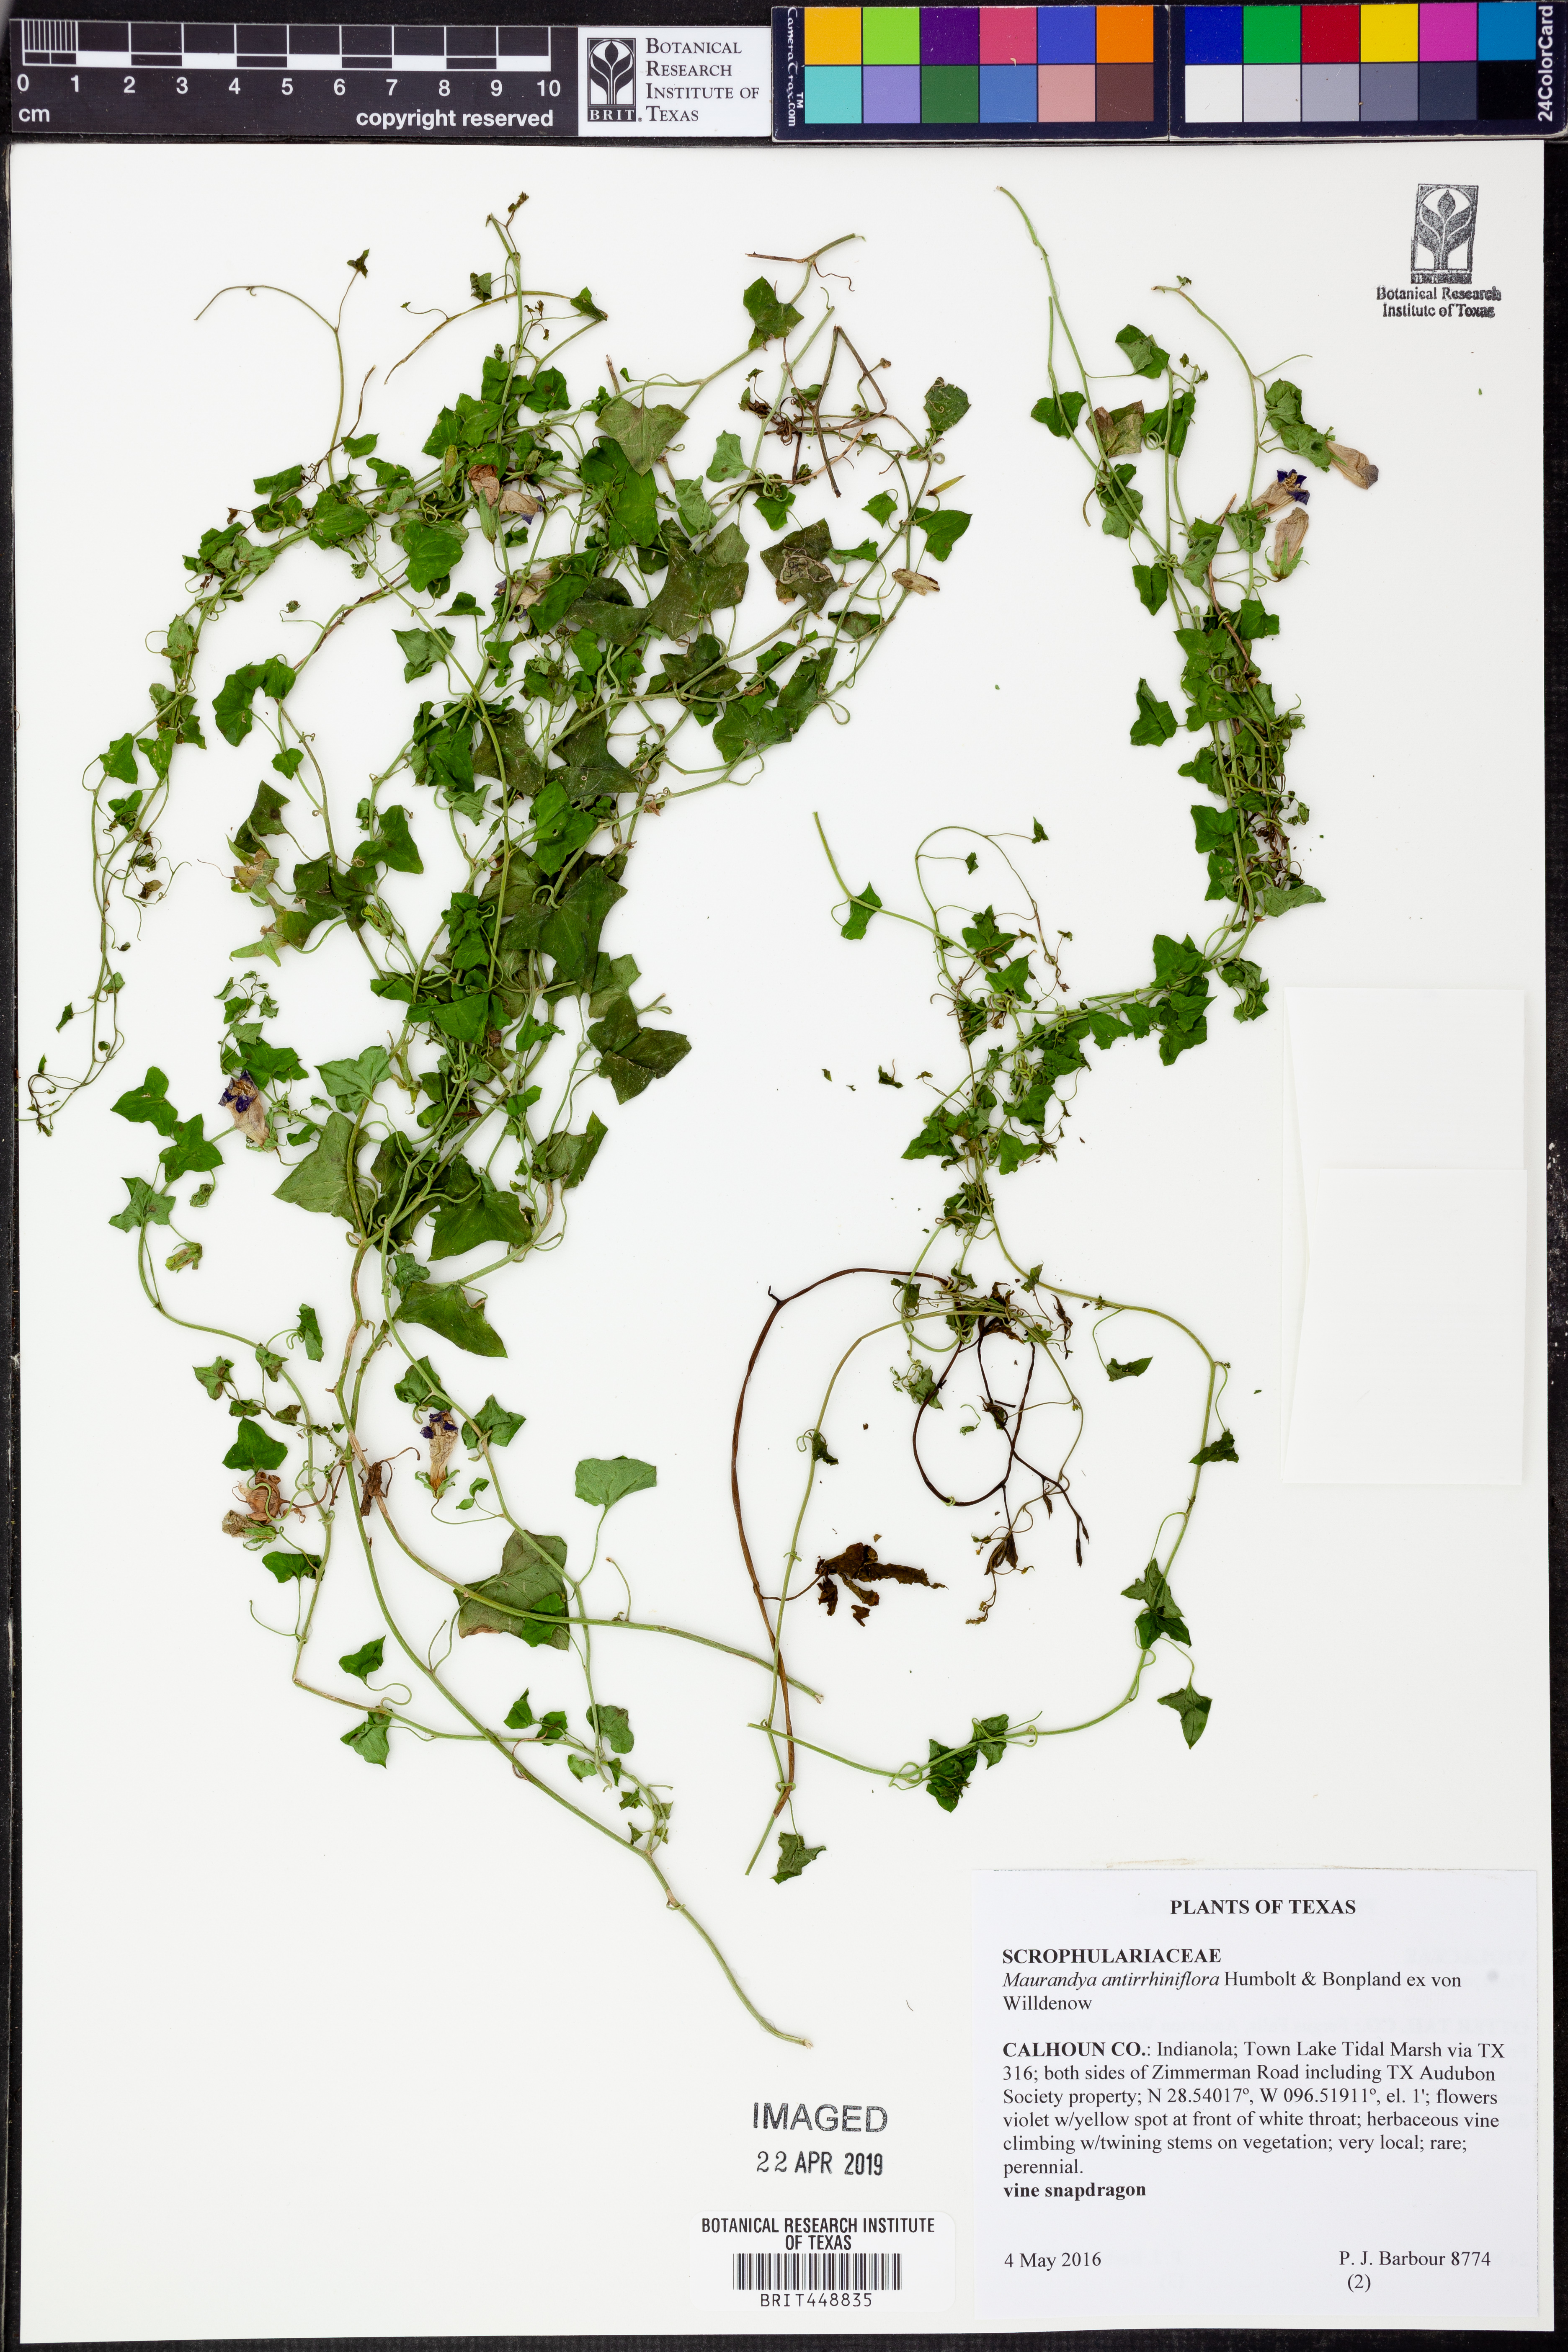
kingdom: Plantae
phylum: Tracheophyta
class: Magnoliopsida
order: Lamiales
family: Plantaginaceae
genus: Maurandella
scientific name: Maurandella antirrhiniflora
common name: Violet twining-snapdragon
